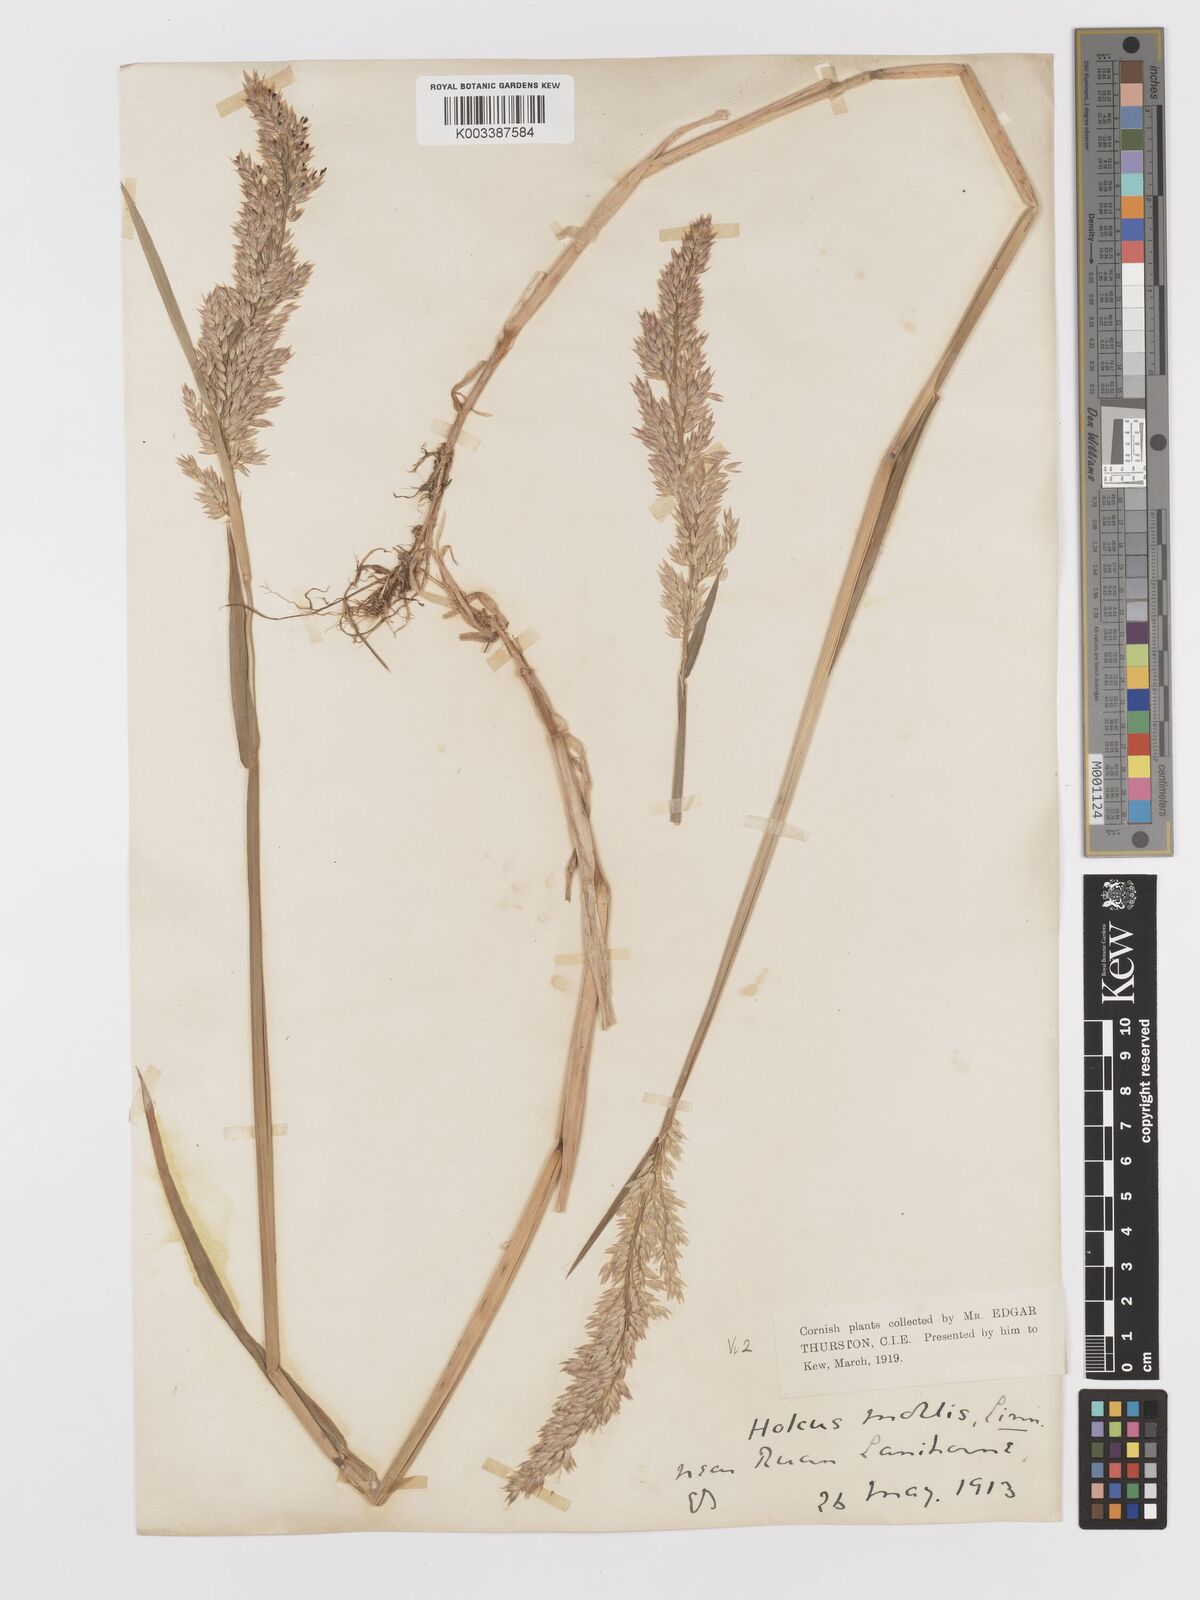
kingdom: Plantae
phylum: Tracheophyta
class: Liliopsida
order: Poales
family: Poaceae
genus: Holcus
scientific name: Holcus lanatus
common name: Yorkshire-fog
